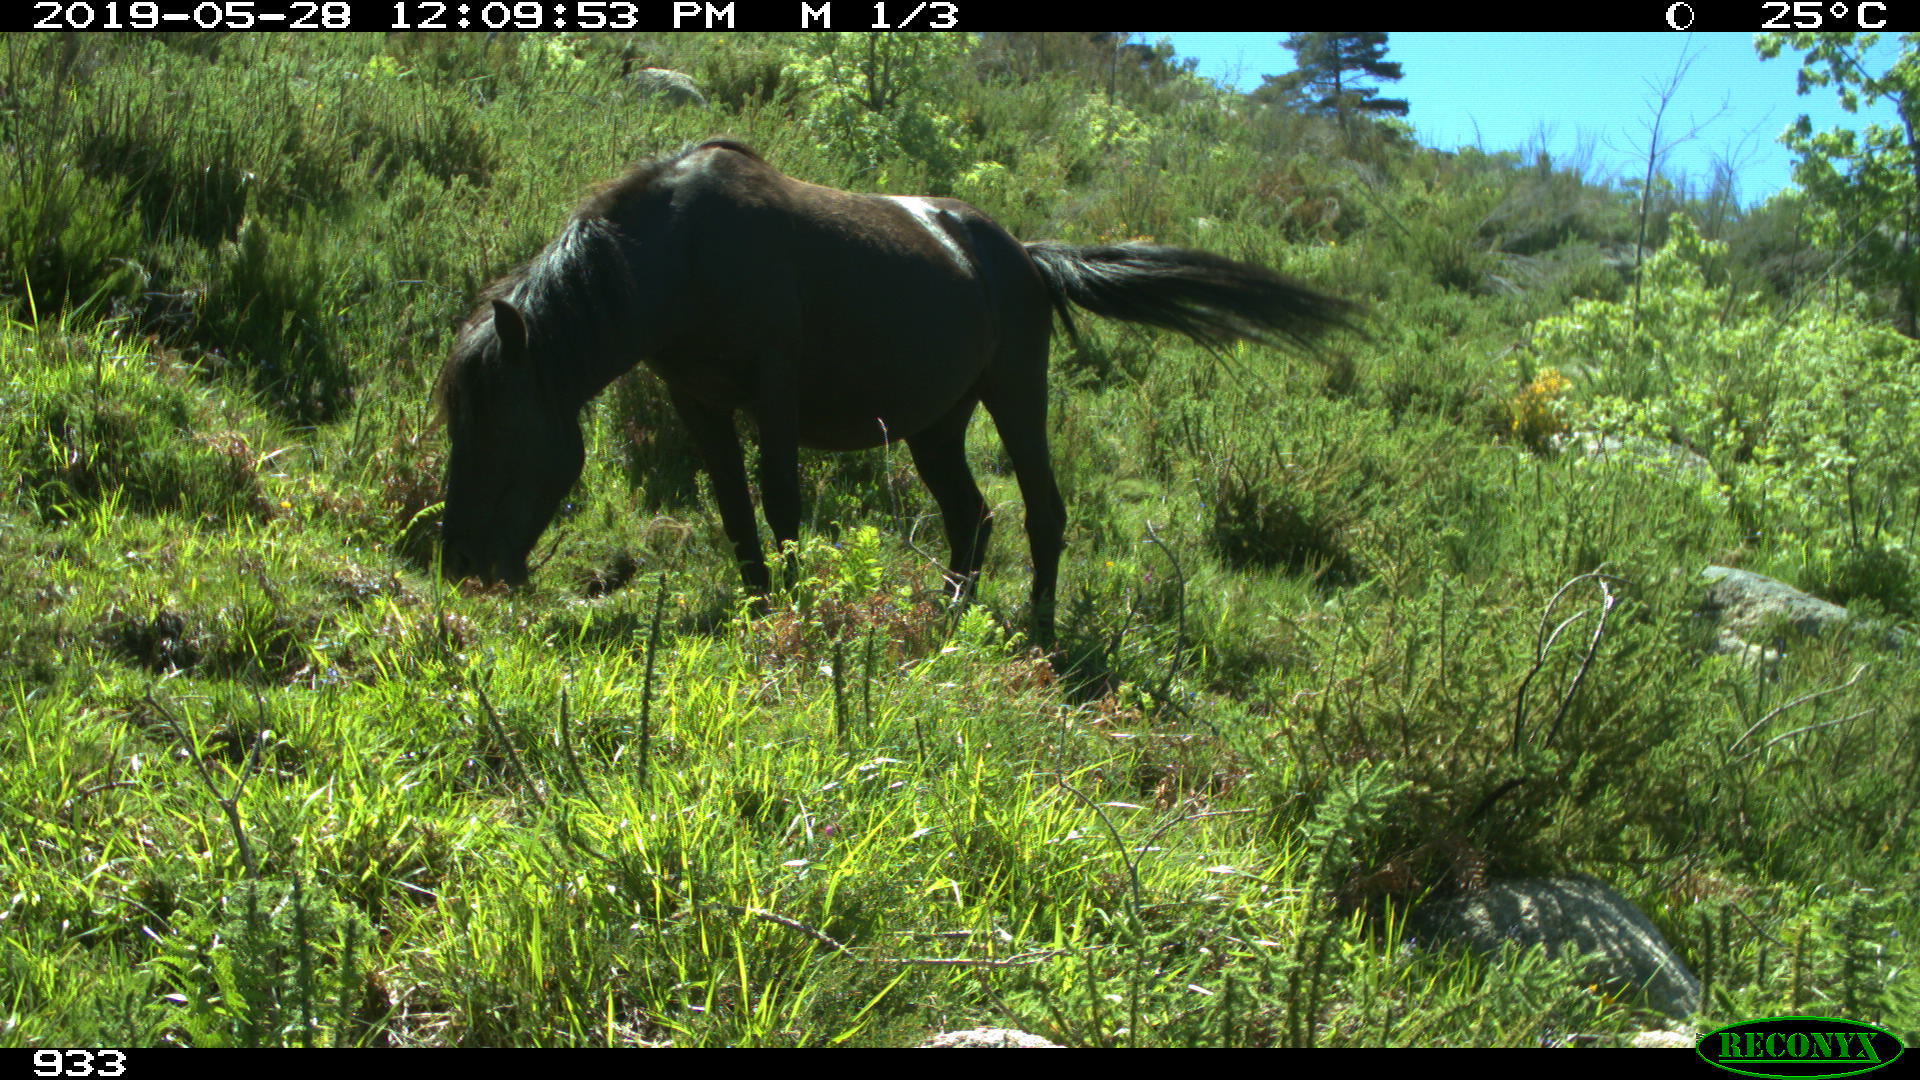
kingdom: Animalia
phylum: Chordata
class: Mammalia
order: Perissodactyla
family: Equidae
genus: Equus
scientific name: Equus caballus
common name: Horse
